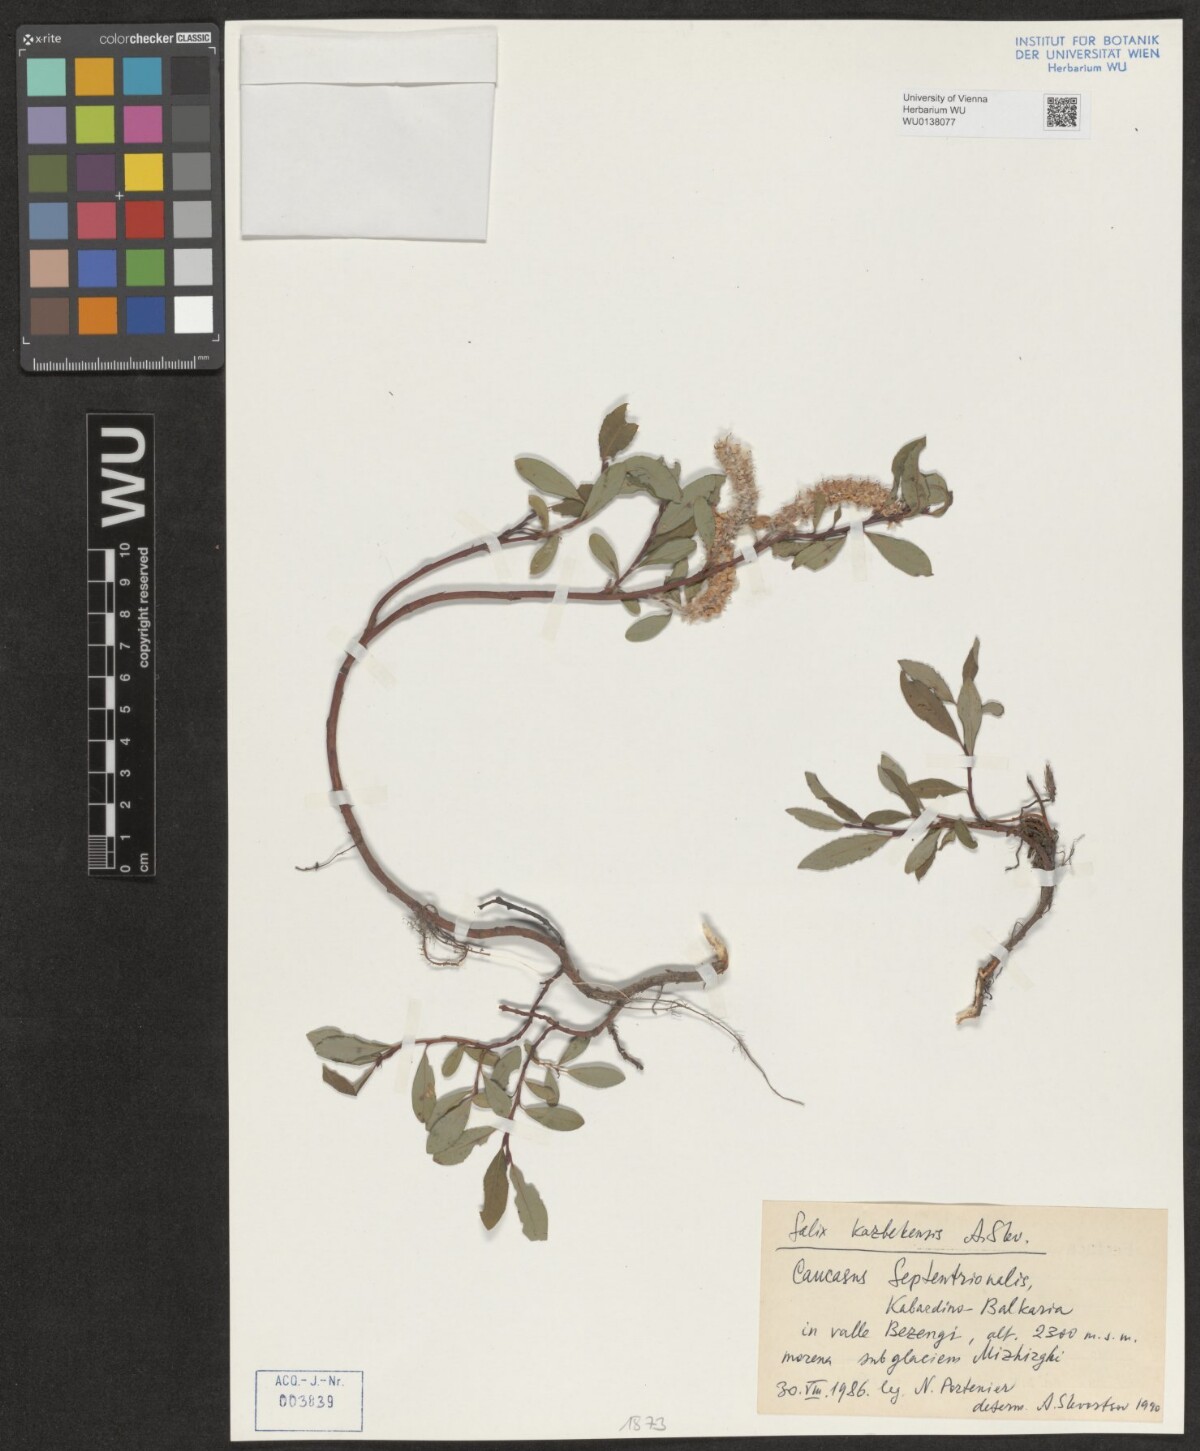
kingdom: Plantae
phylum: Tracheophyta
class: Magnoliopsida
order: Malpighiales
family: Salicaceae
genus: Salix
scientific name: Salix kazbekensis
